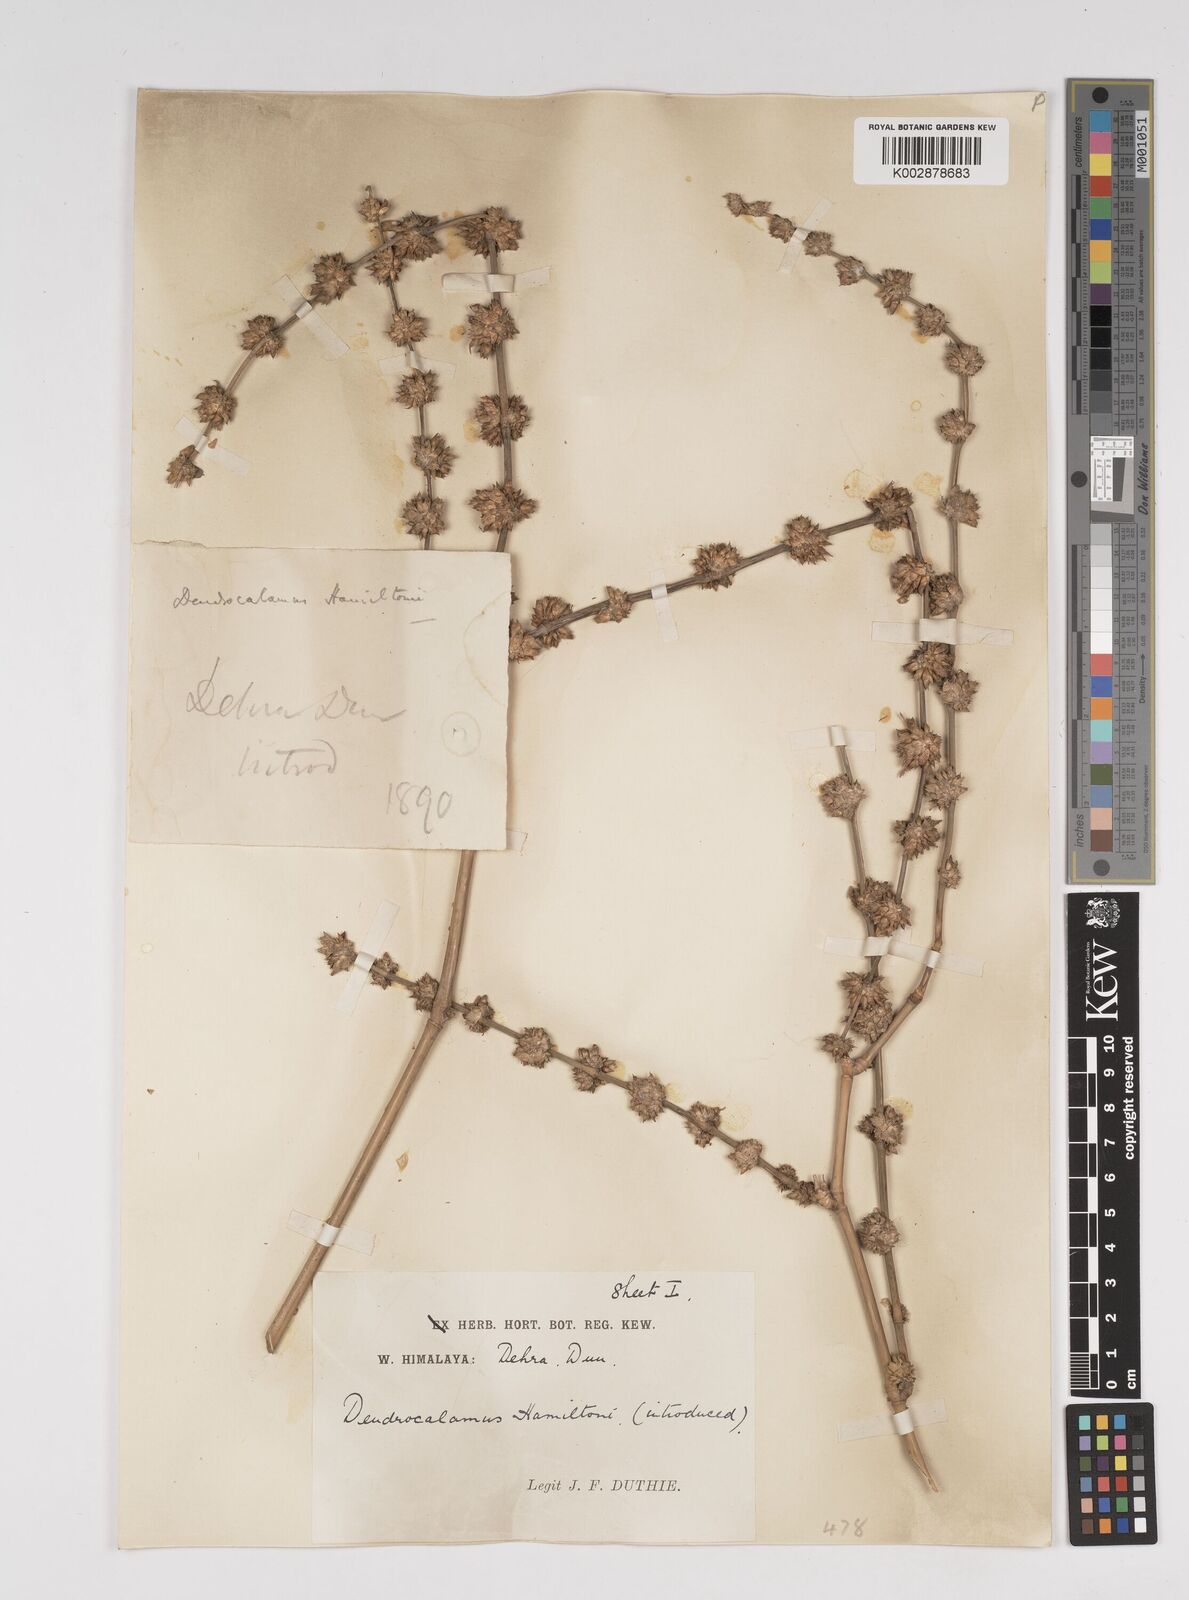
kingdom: Plantae
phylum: Tracheophyta
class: Liliopsida
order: Poales
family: Poaceae
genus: Dendrocalamus
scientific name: Dendrocalamus hamiltonii
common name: Tama bamboo
